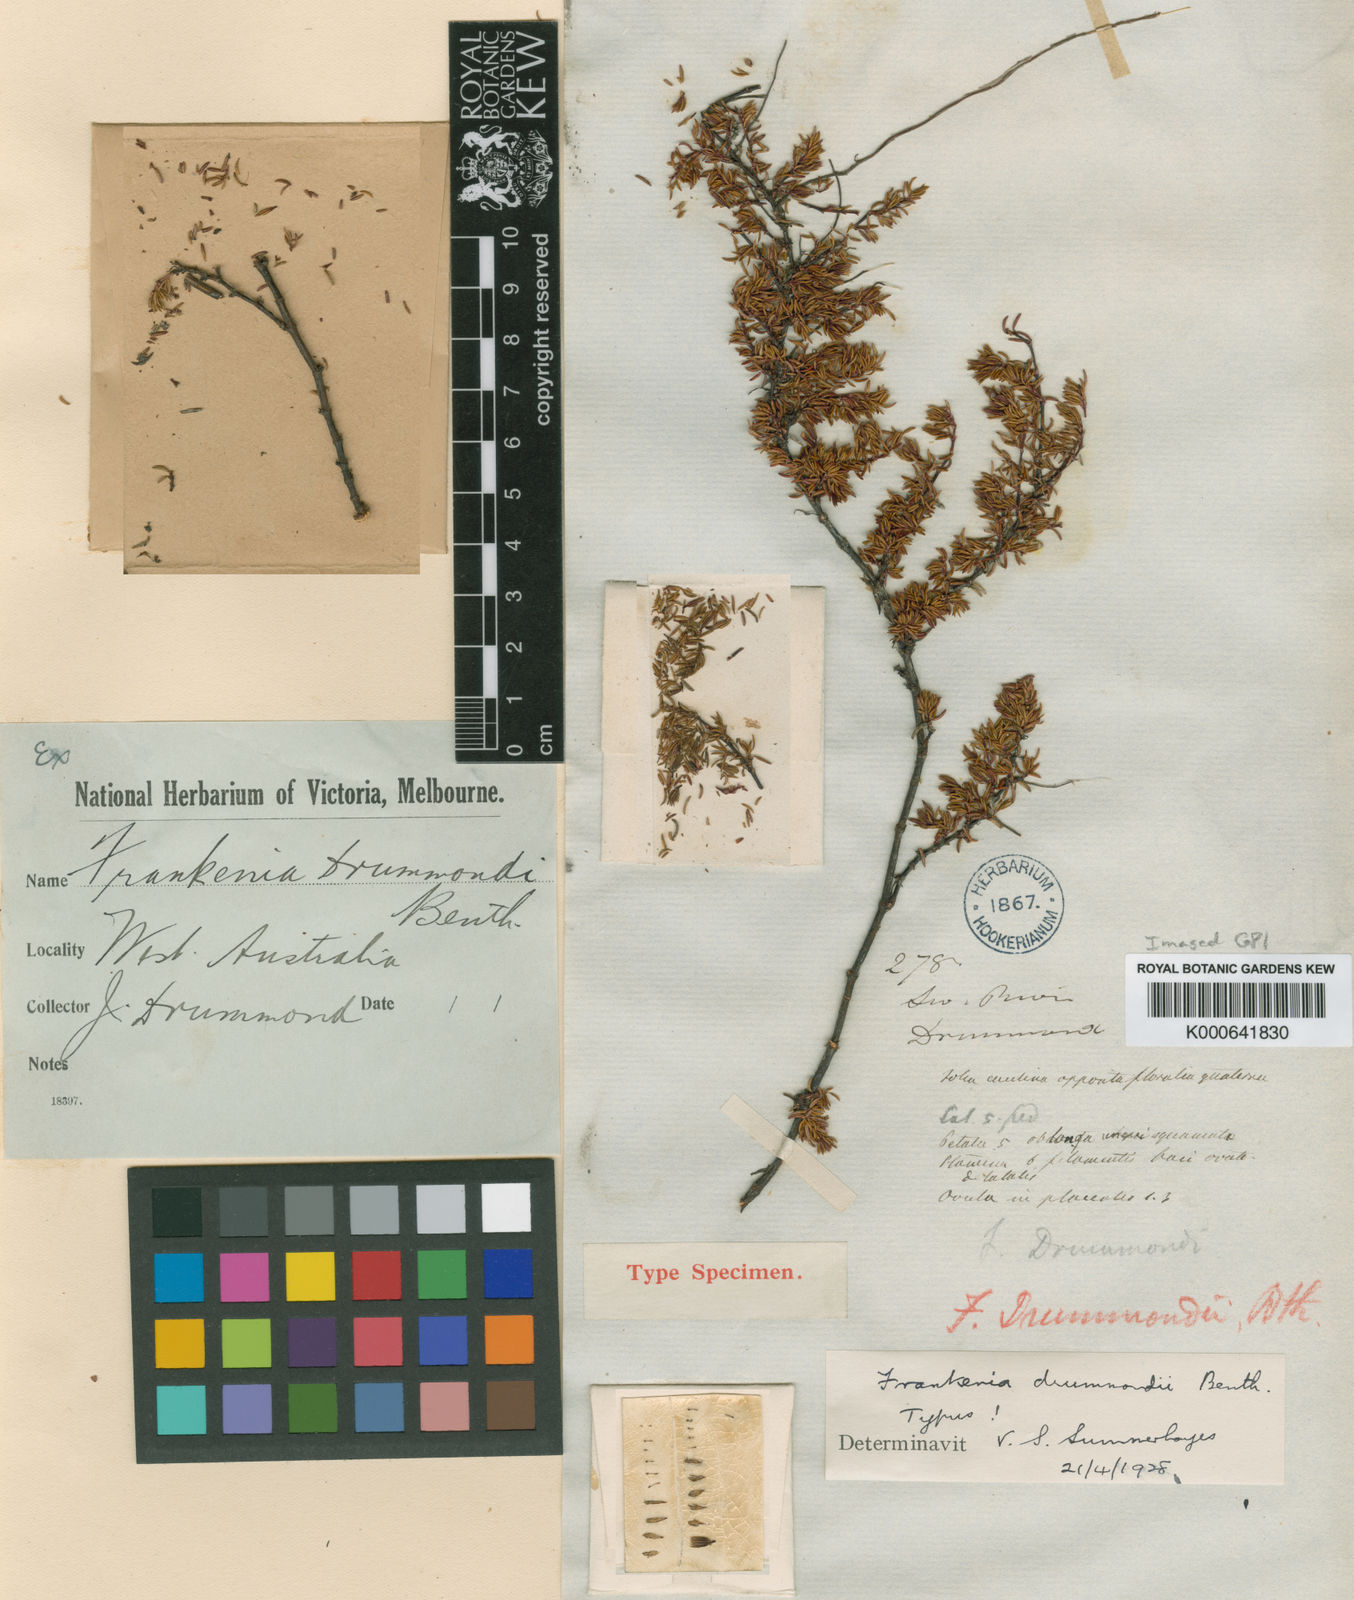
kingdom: Plantae
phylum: Tracheophyta
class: Magnoliopsida
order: Caryophyllales
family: Frankeniaceae
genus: Frankenia
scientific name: Frankenia drummondii
